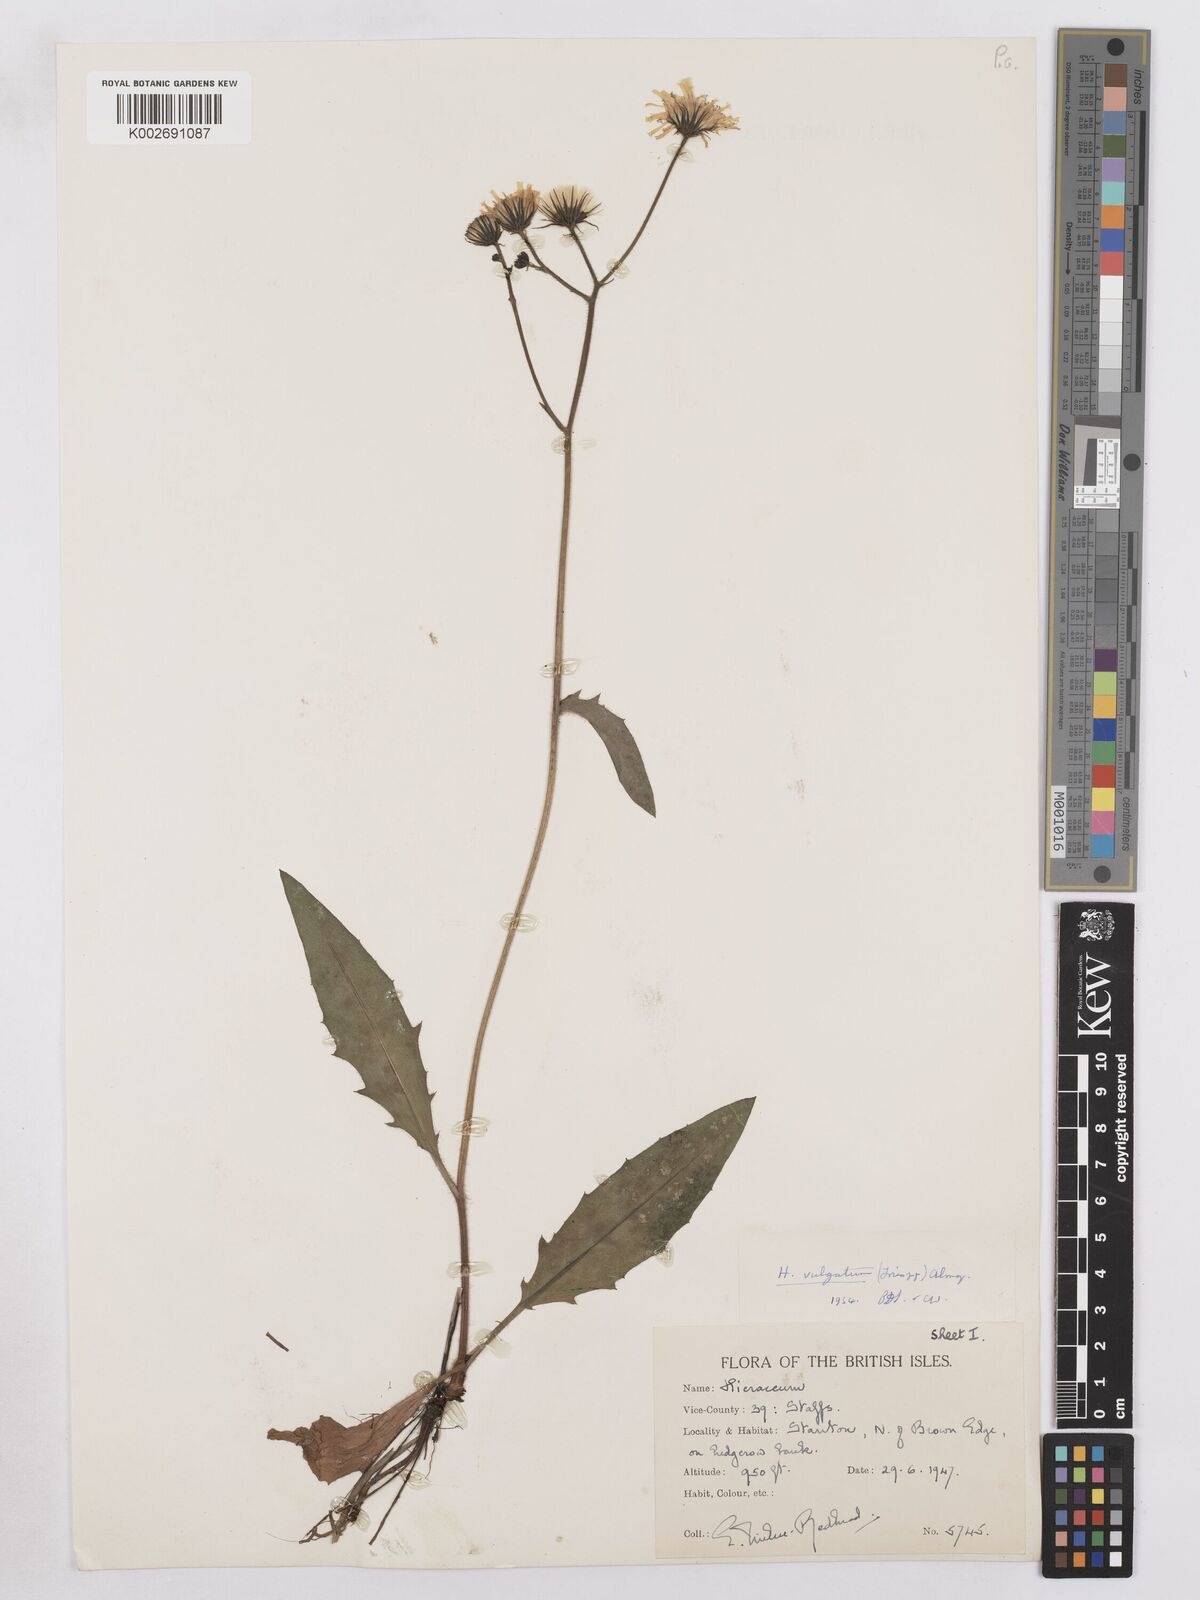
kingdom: Plantae
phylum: Tracheophyta
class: Magnoliopsida
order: Asterales
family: Asteraceae
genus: Hieracium
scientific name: Hieracium
